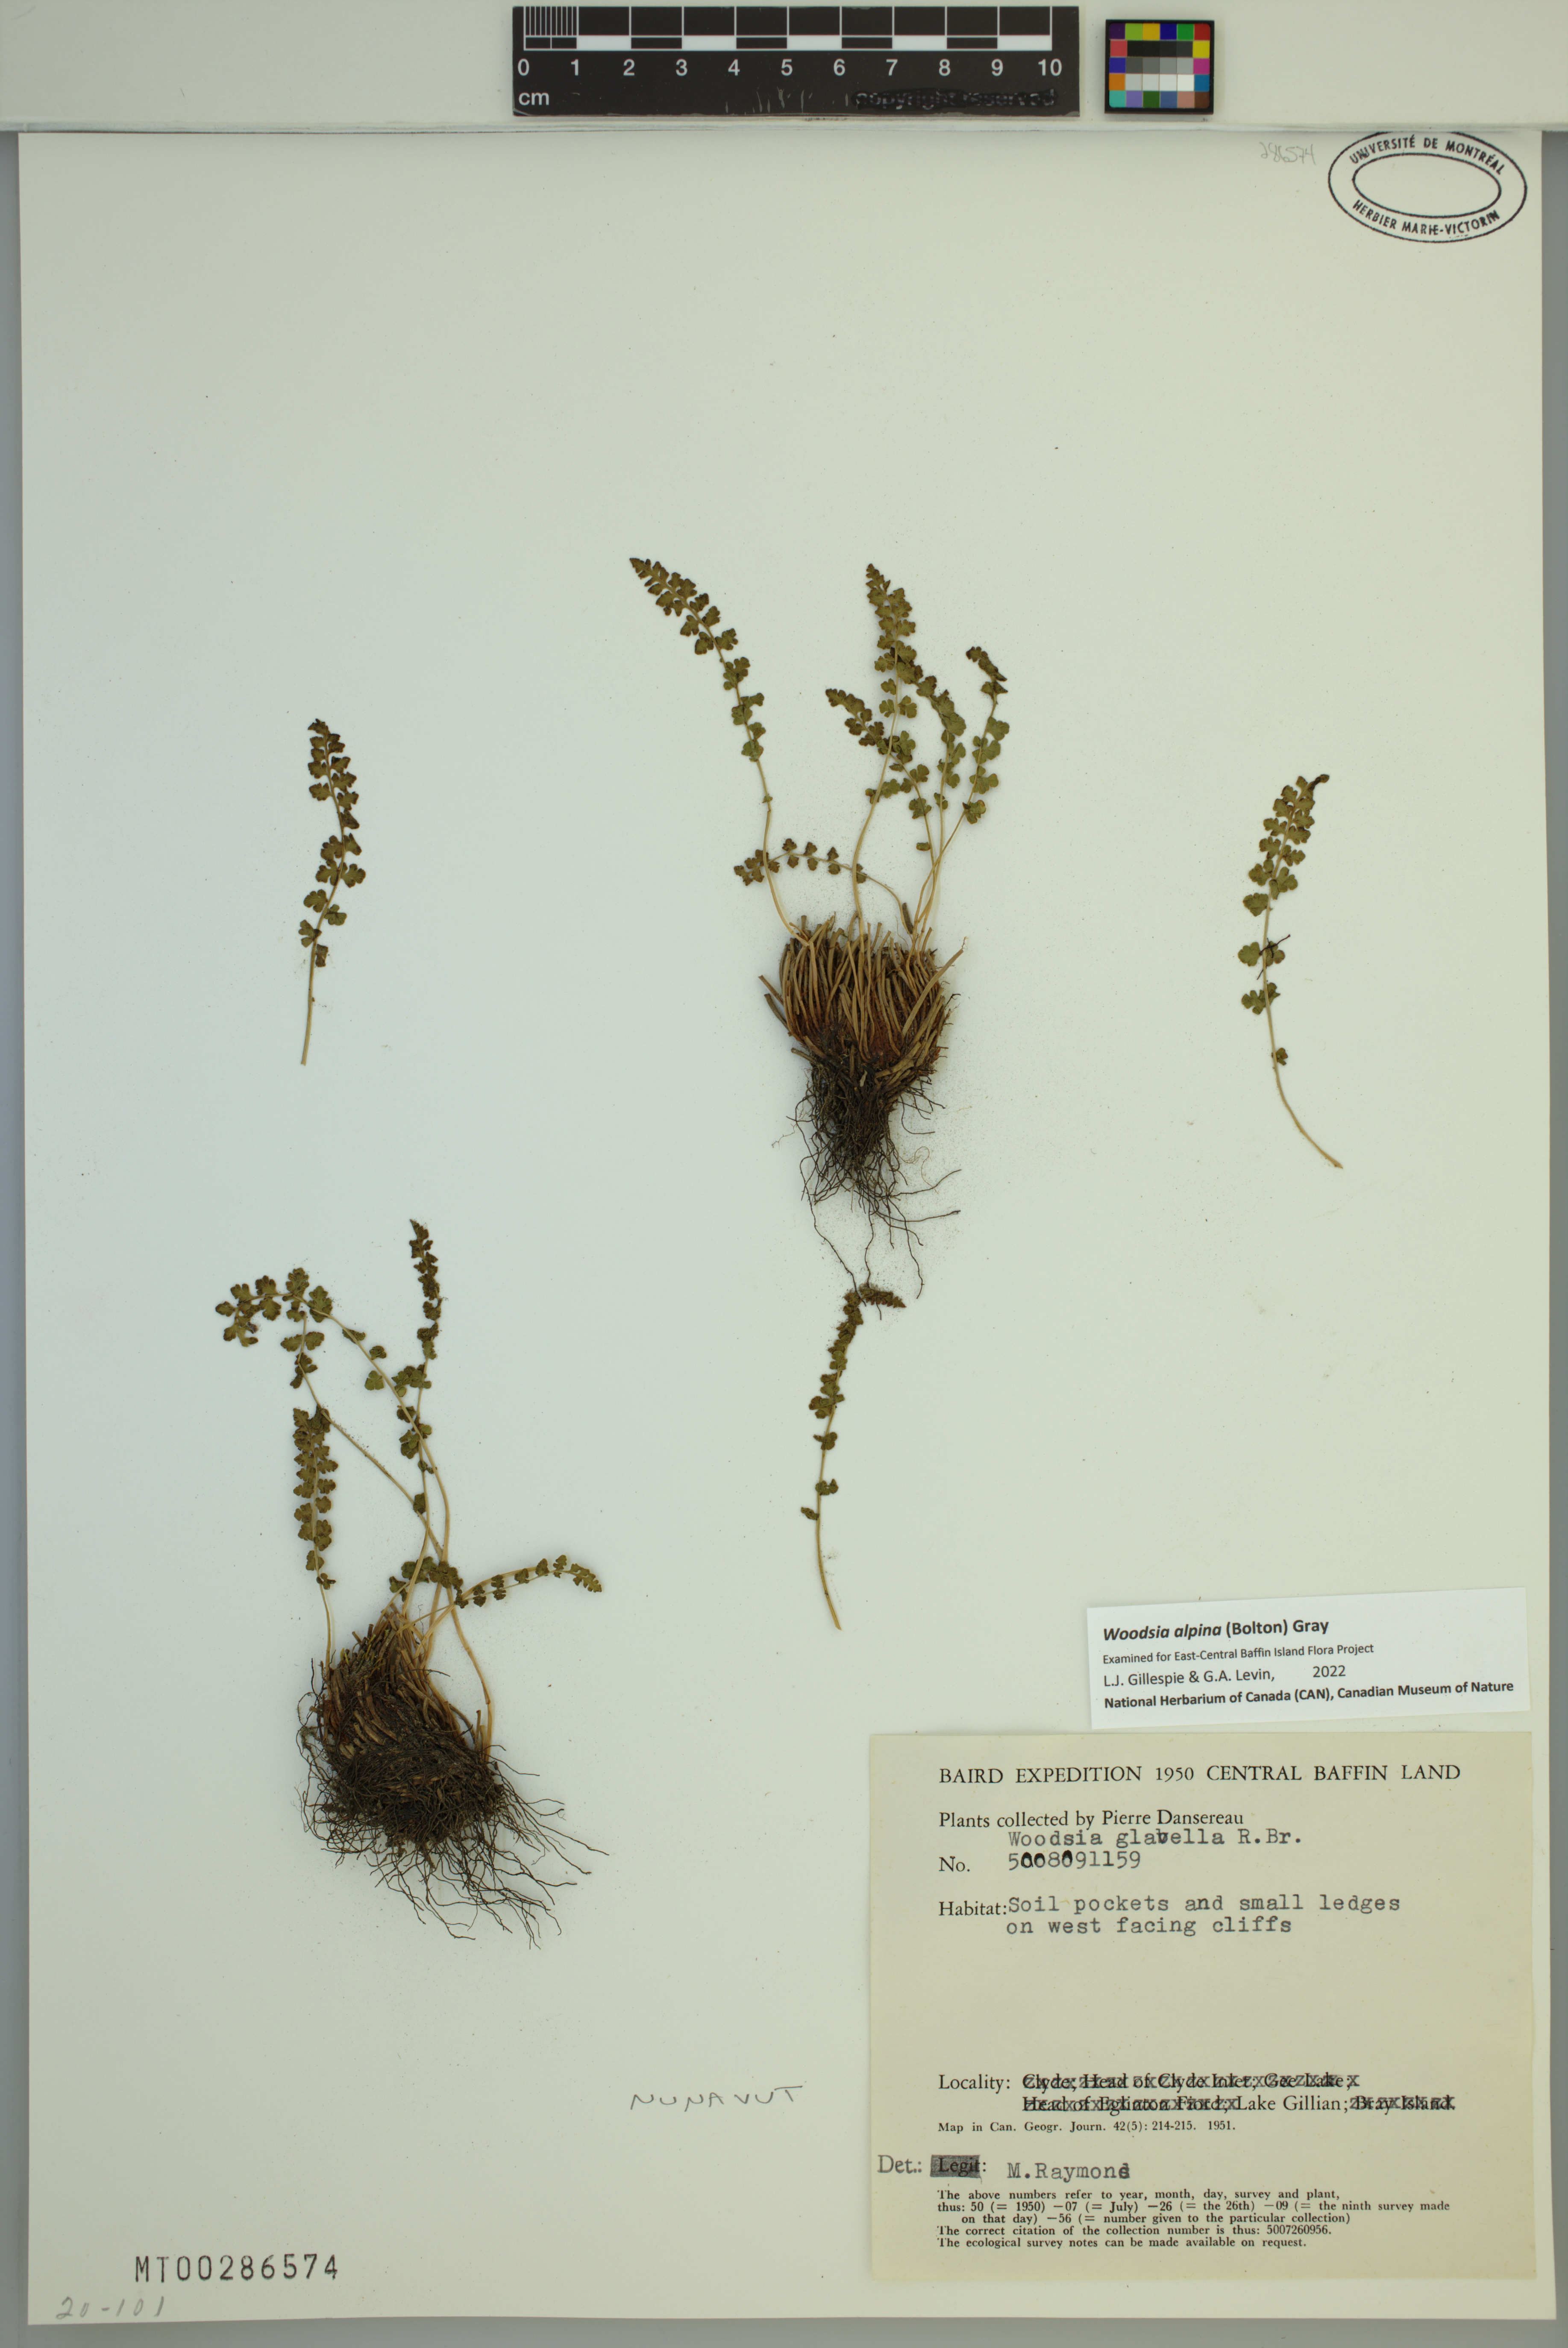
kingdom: Plantae
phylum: Tracheophyta
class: Polypodiopsida
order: Polypodiales
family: Woodsiaceae
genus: Woodsia
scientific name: Woodsia alpina
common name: Alpine woodsia
